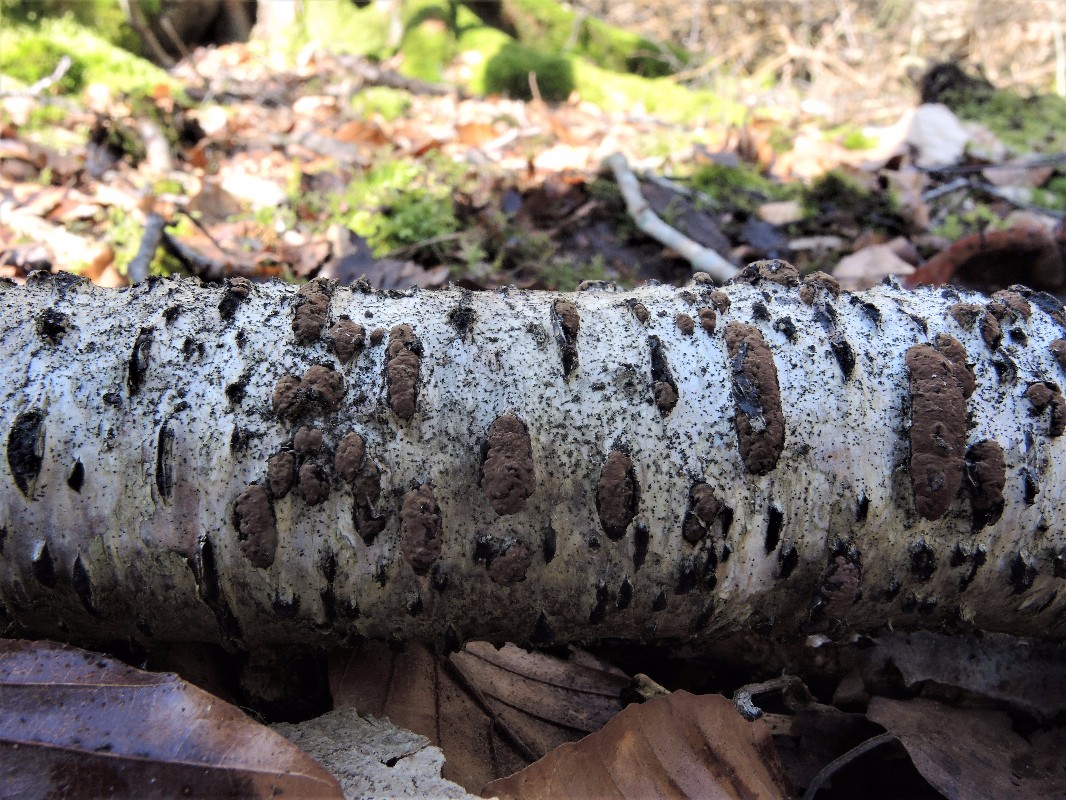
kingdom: Fungi
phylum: Ascomycota
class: Sordariomycetes
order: Xylariales
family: Hypoxylaceae
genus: Jackrogersella
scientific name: Jackrogersella multiformis
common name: foranderlig kulbær
